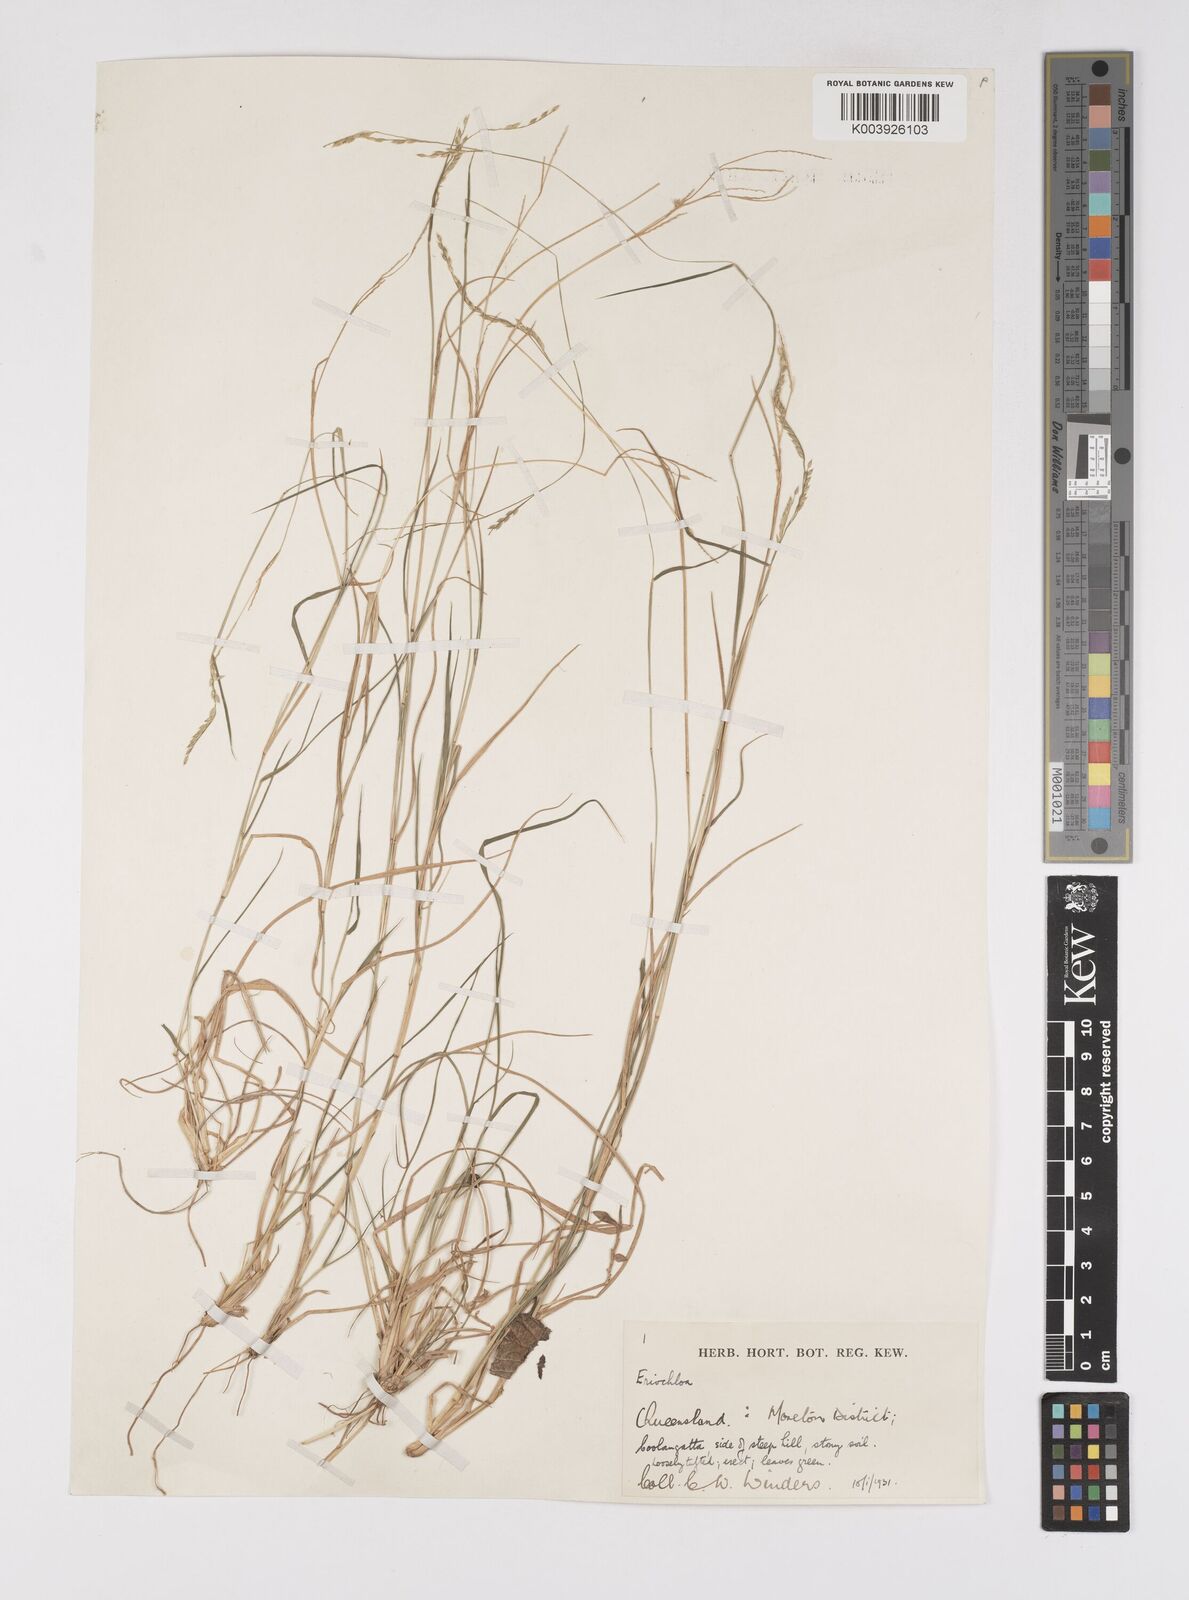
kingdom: Plantae
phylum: Tracheophyta
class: Liliopsida
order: Poales
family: Poaceae
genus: Eriochloa
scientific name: Eriochloa
